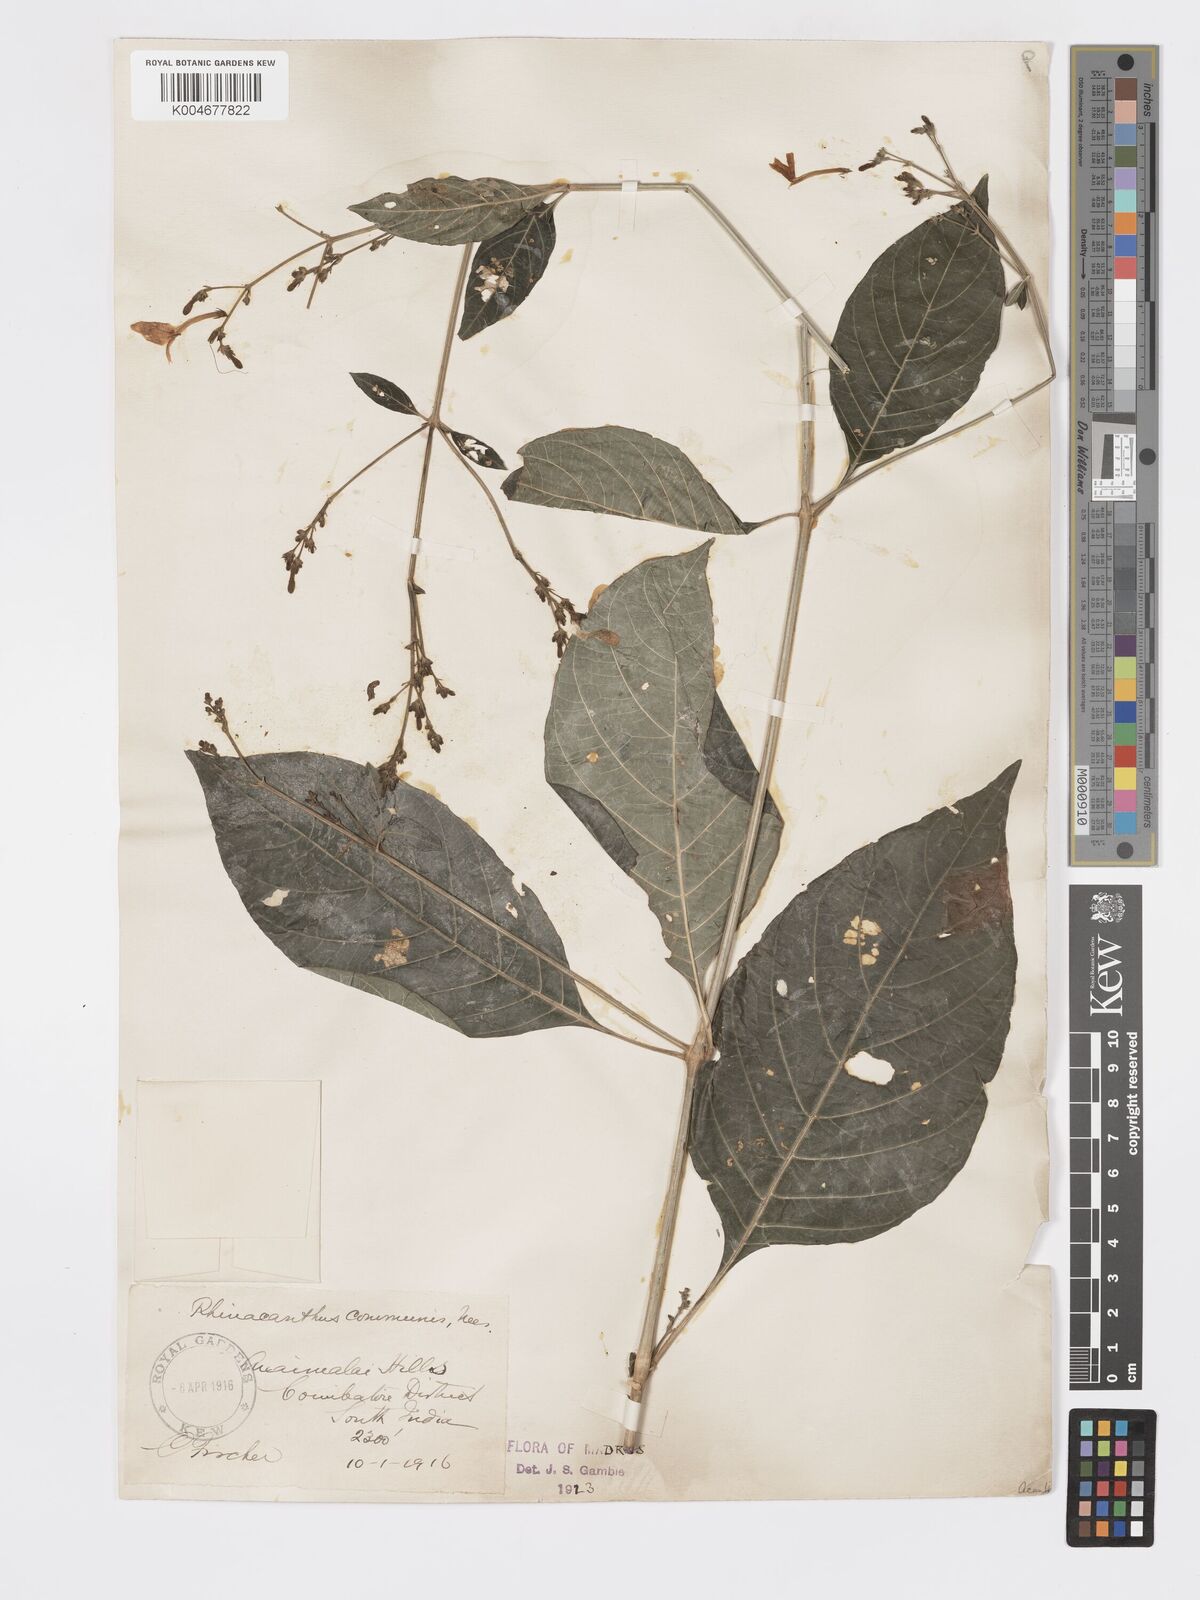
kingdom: Plantae
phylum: Tracheophyta
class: Magnoliopsida
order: Lamiales
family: Acanthaceae
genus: Rhinacanthus
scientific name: Rhinacanthus nasutus
